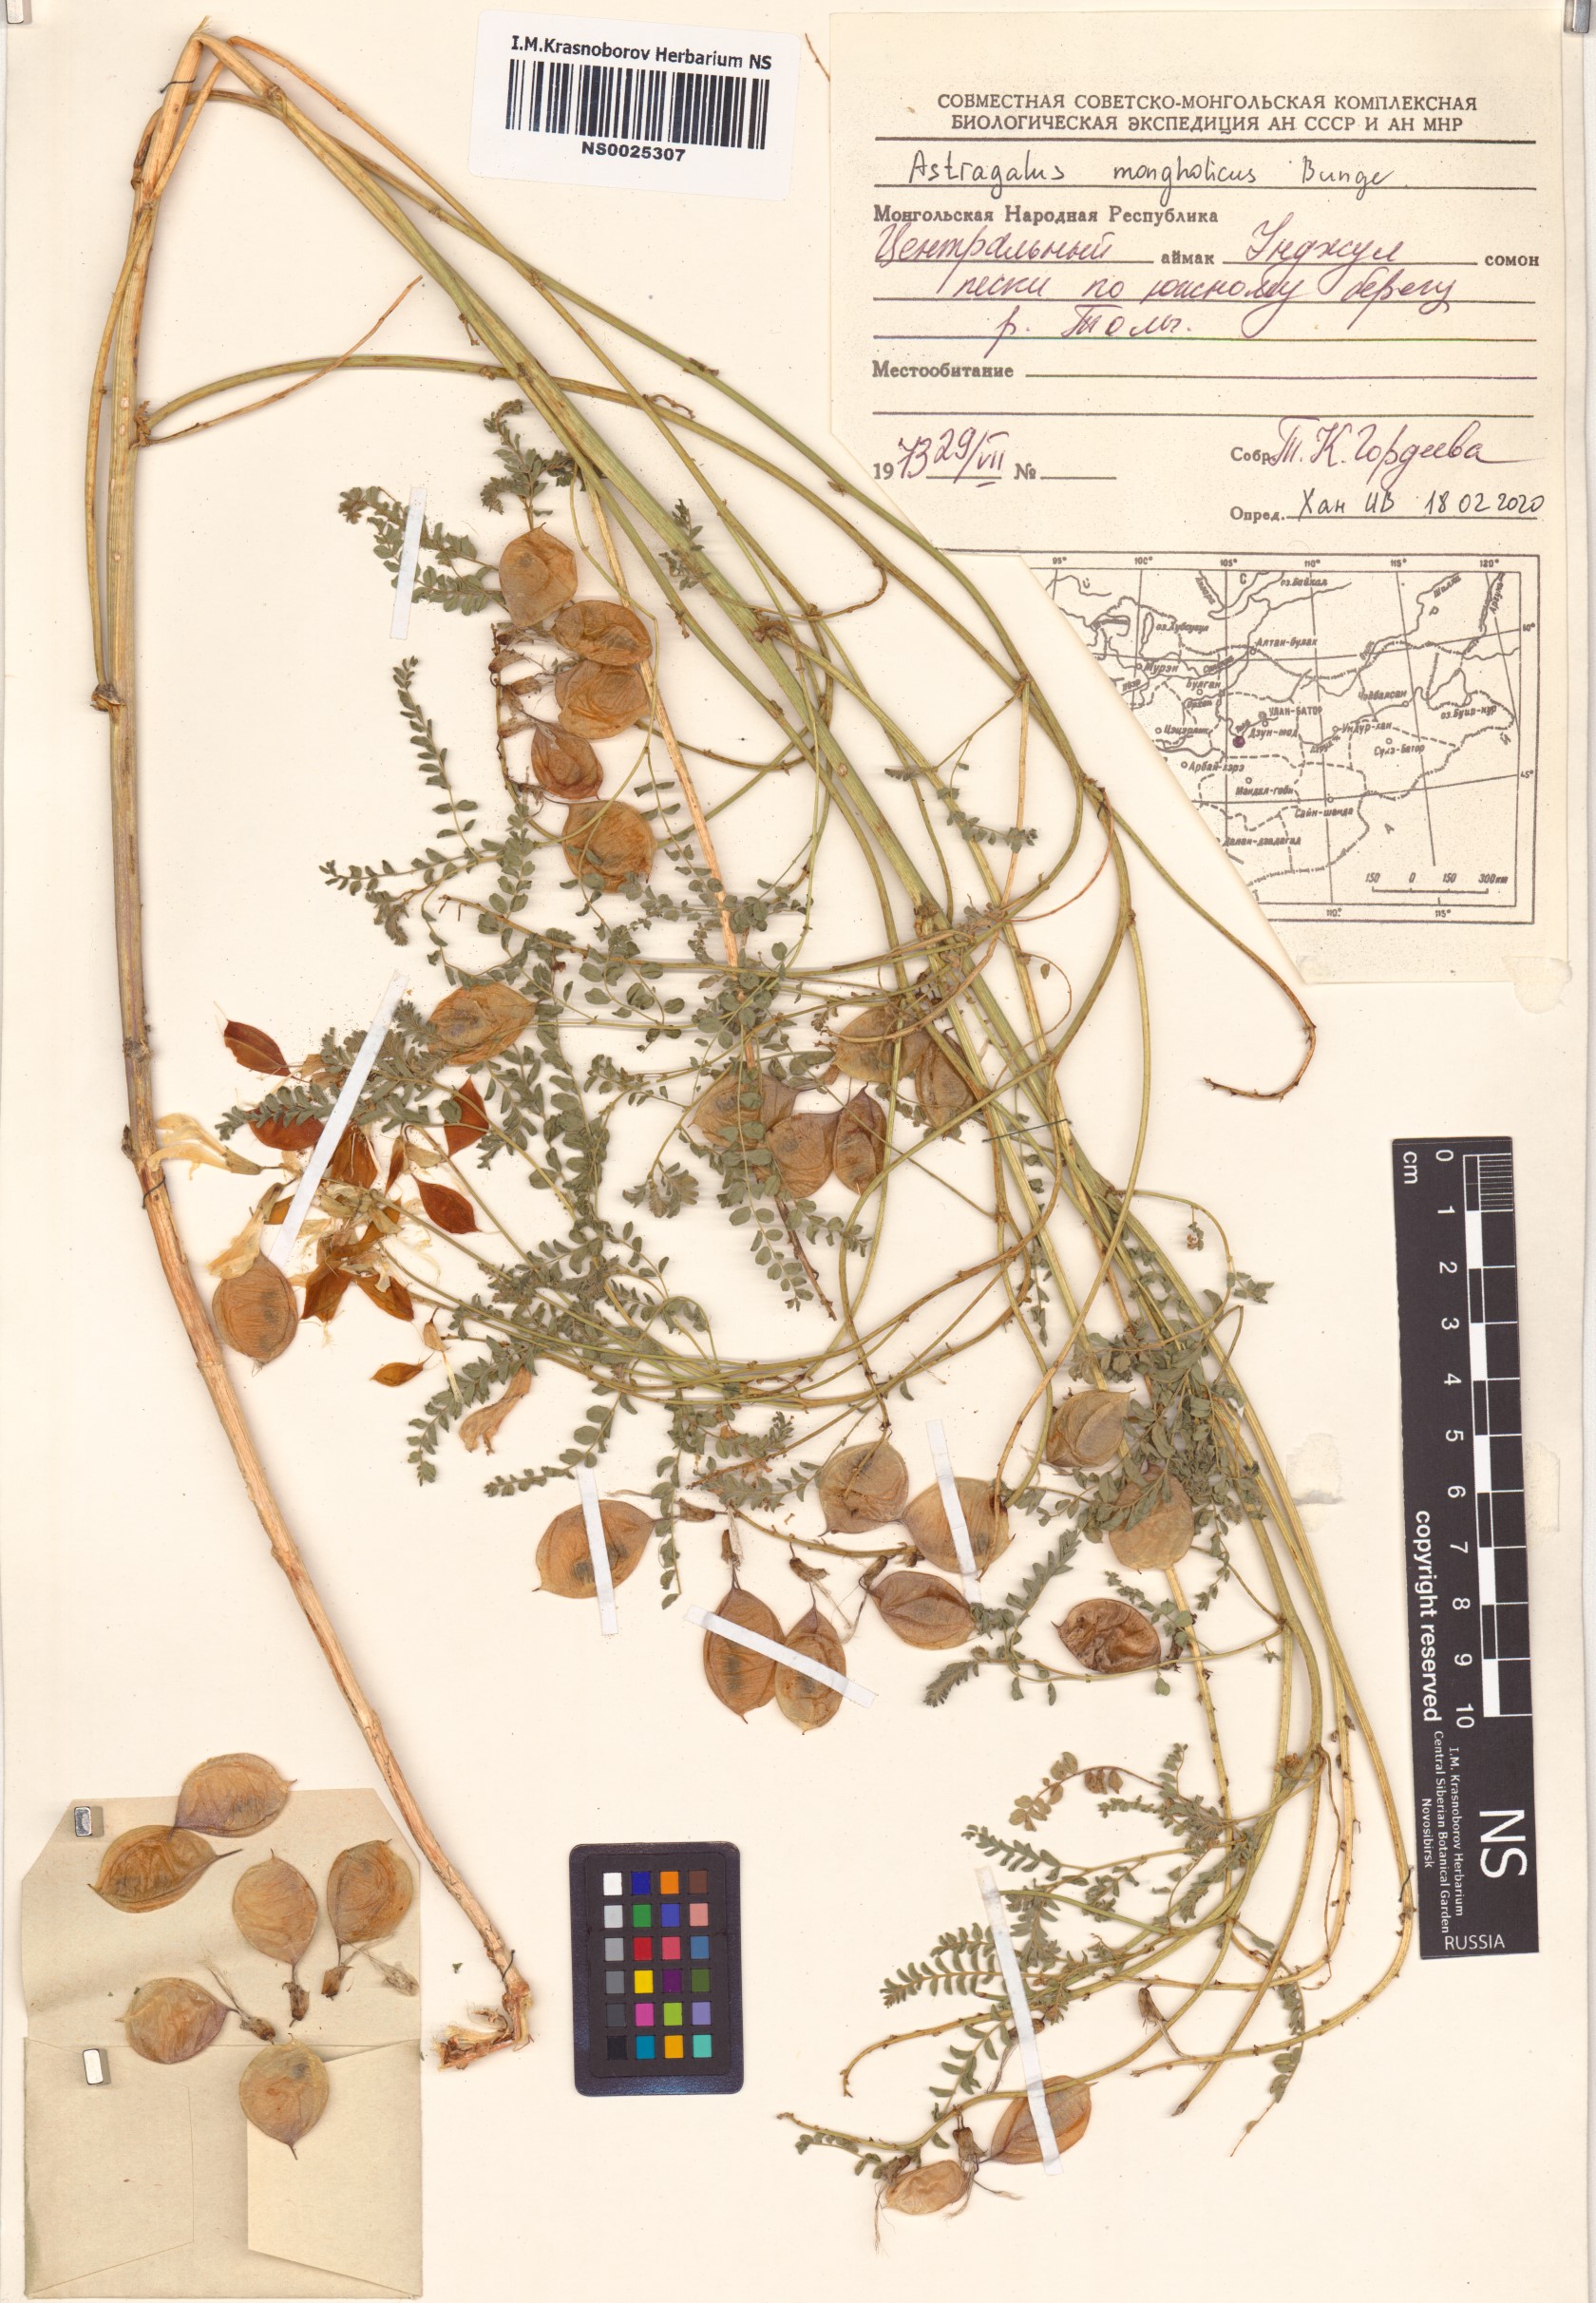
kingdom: Plantae
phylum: Tracheophyta
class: Magnoliopsida
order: Fabales
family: Fabaceae
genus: Astragalus
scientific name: Astragalus mongholicus
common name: Membranous milk-vetch
